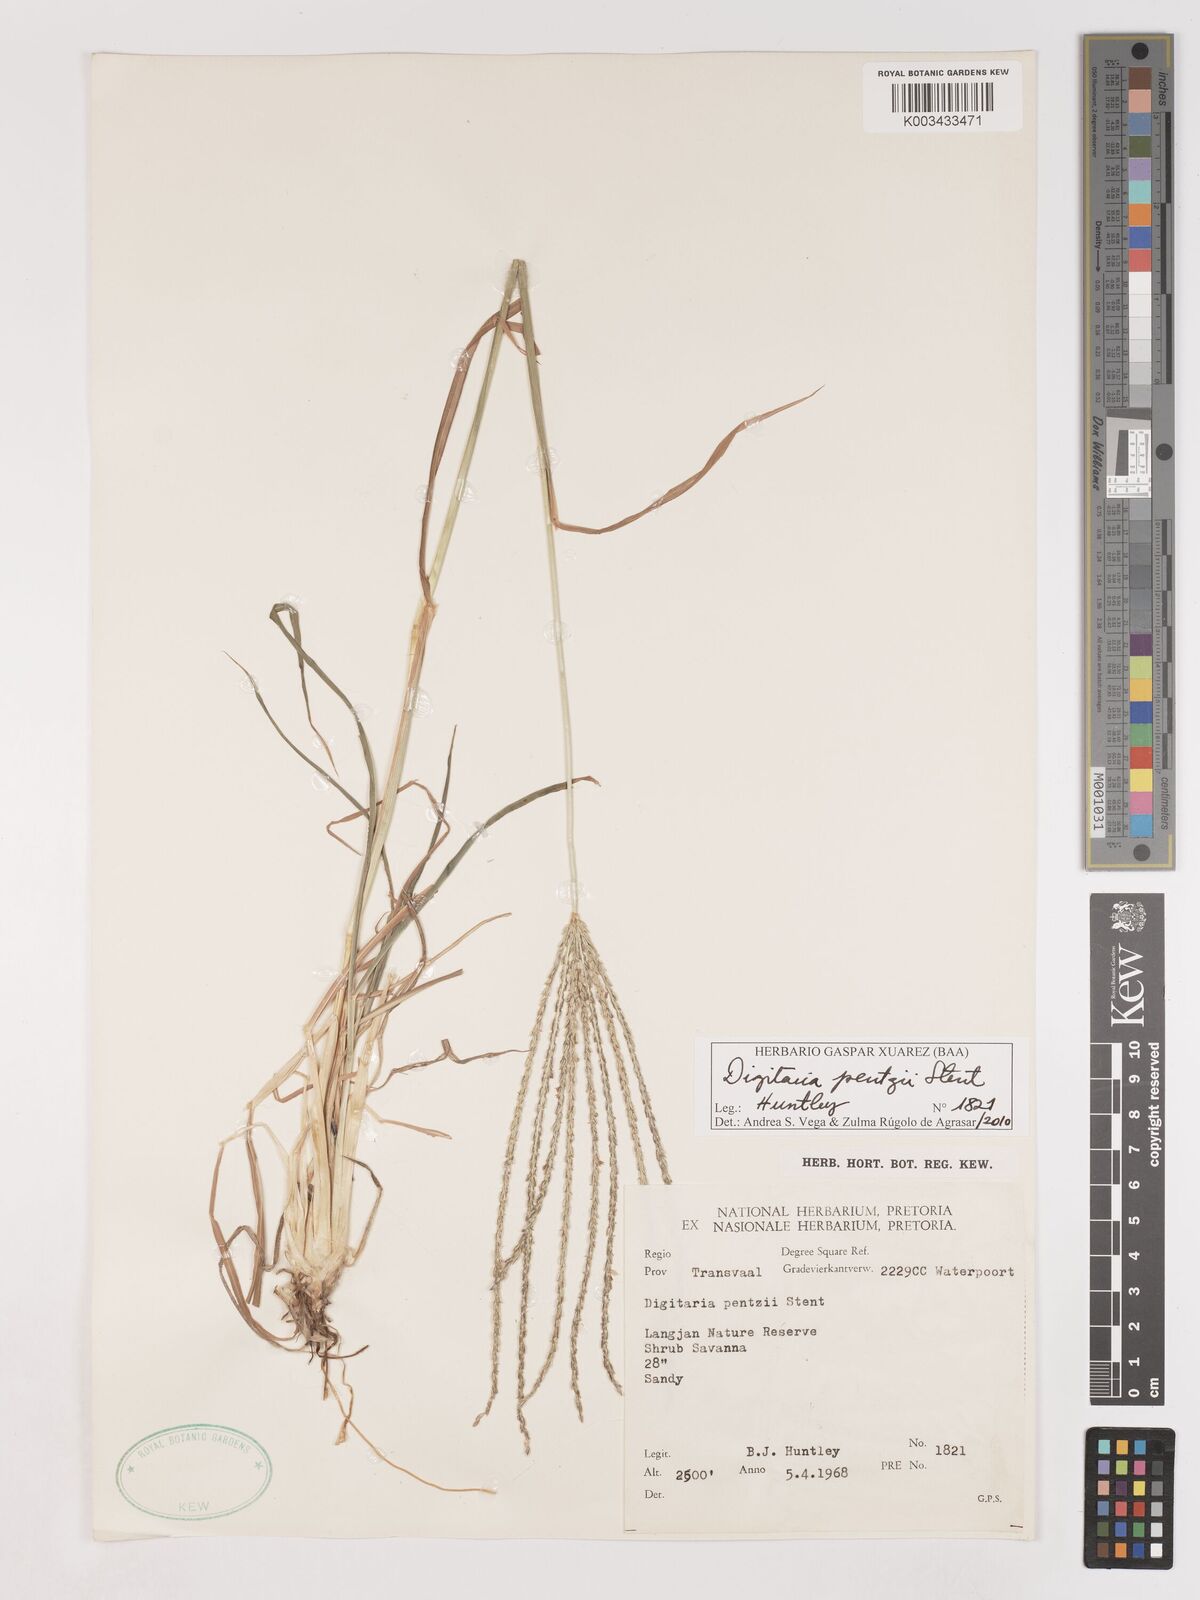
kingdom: Plantae
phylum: Tracheophyta
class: Liliopsida
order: Poales
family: Poaceae
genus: Digitaria
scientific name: Digitaria eriantha
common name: Digitgrass
